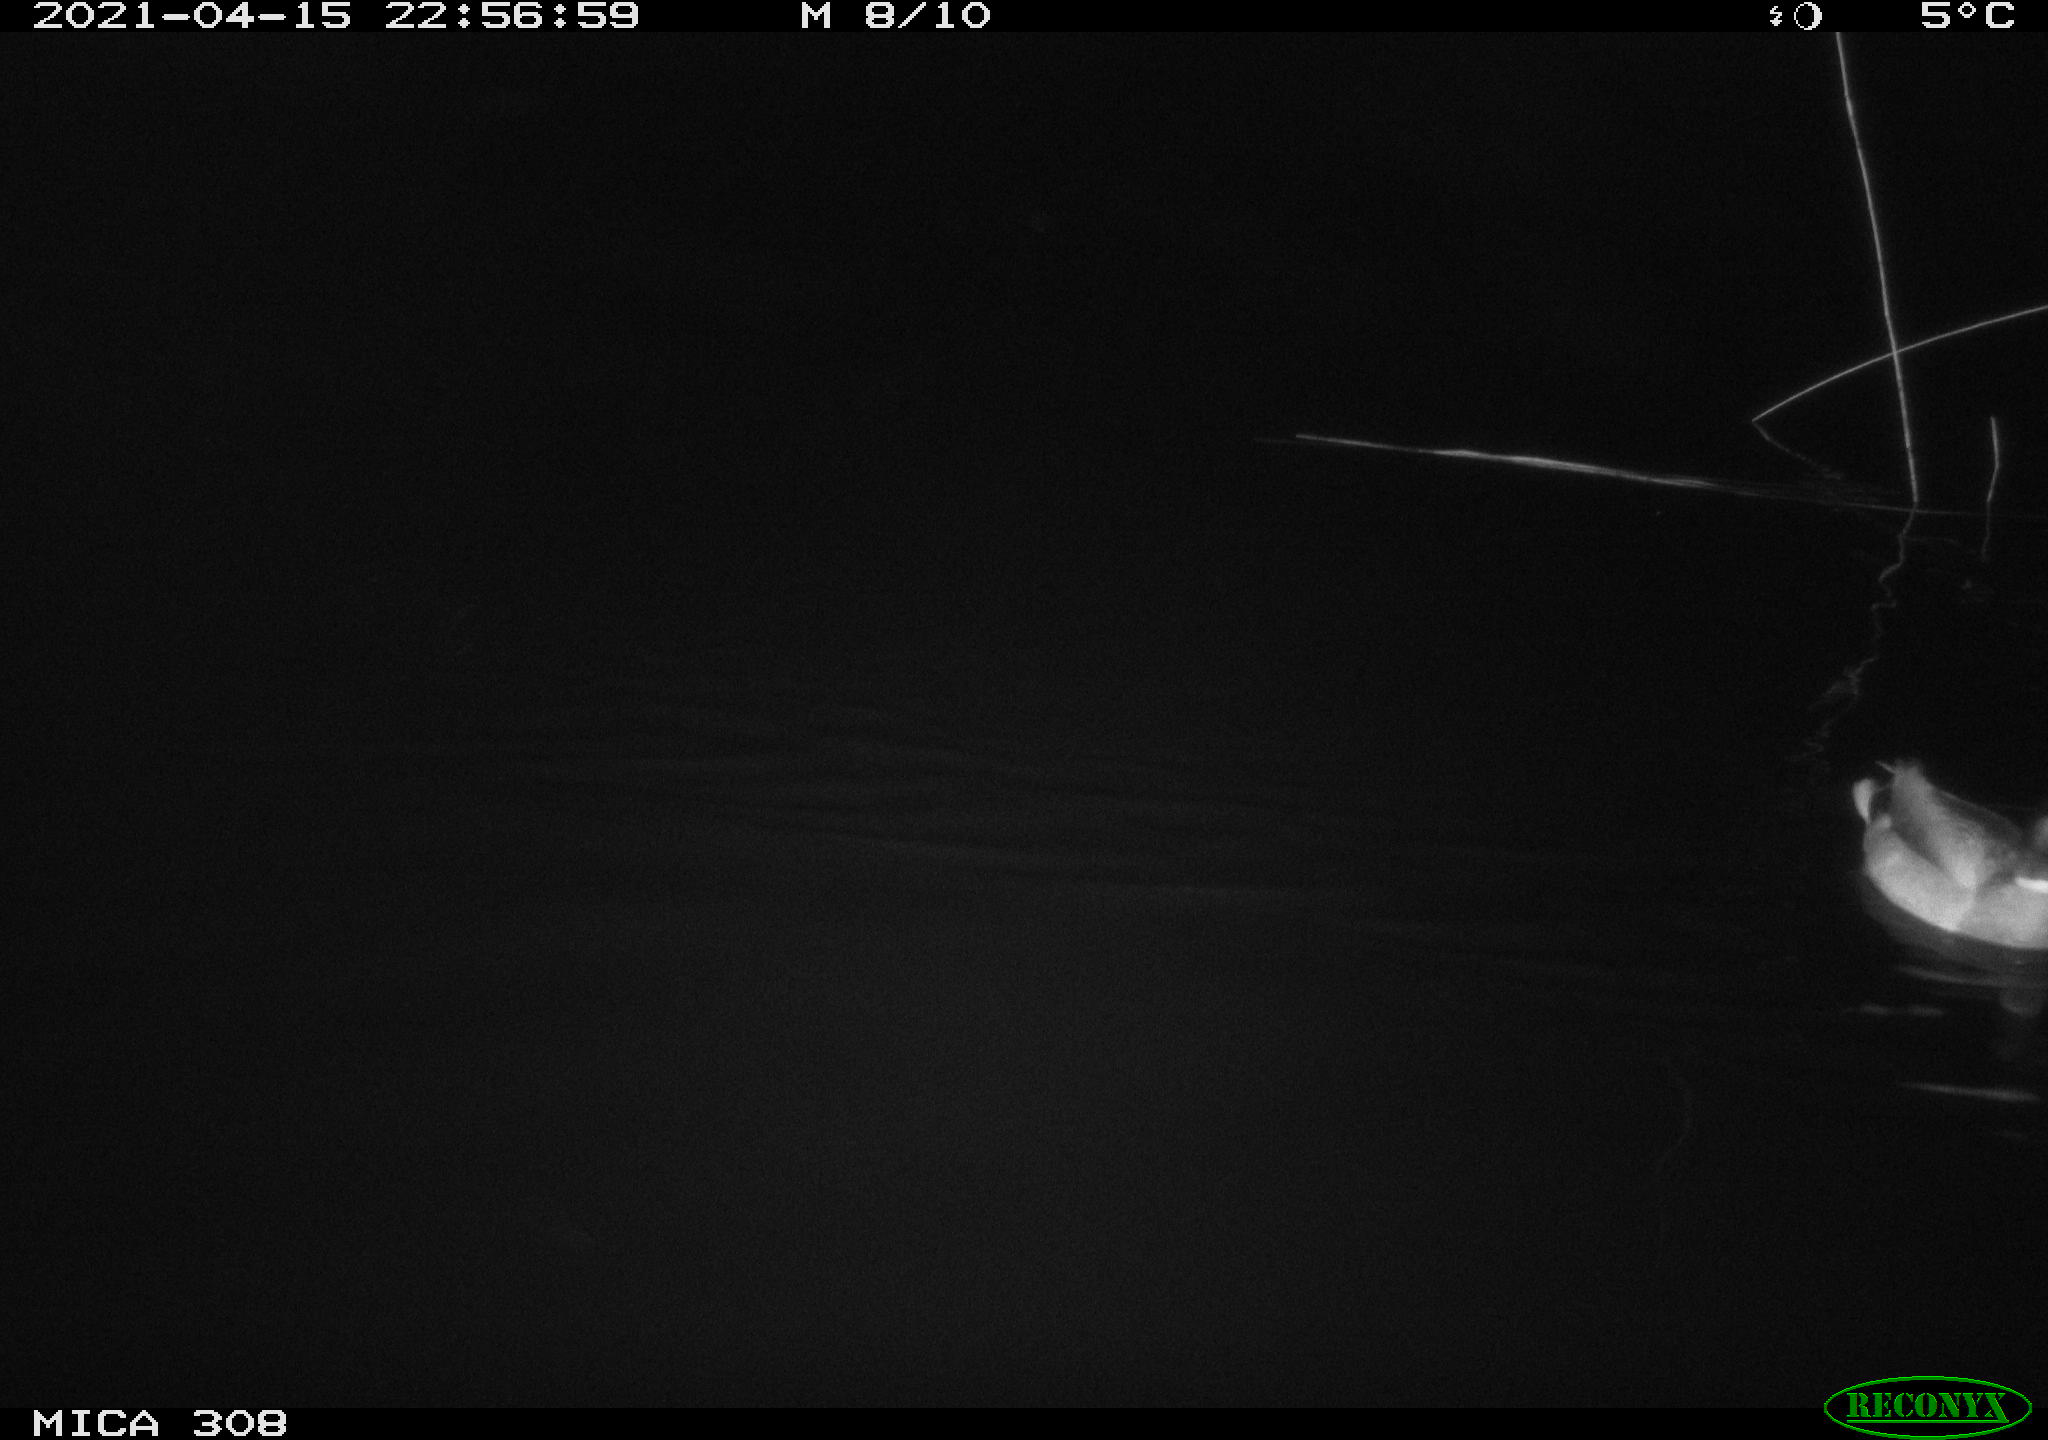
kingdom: Animalia
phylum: Chordata
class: Aves
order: Anseriformes
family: Anatidae
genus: Anas
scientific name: Anas platyrhynchos
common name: Mallard
